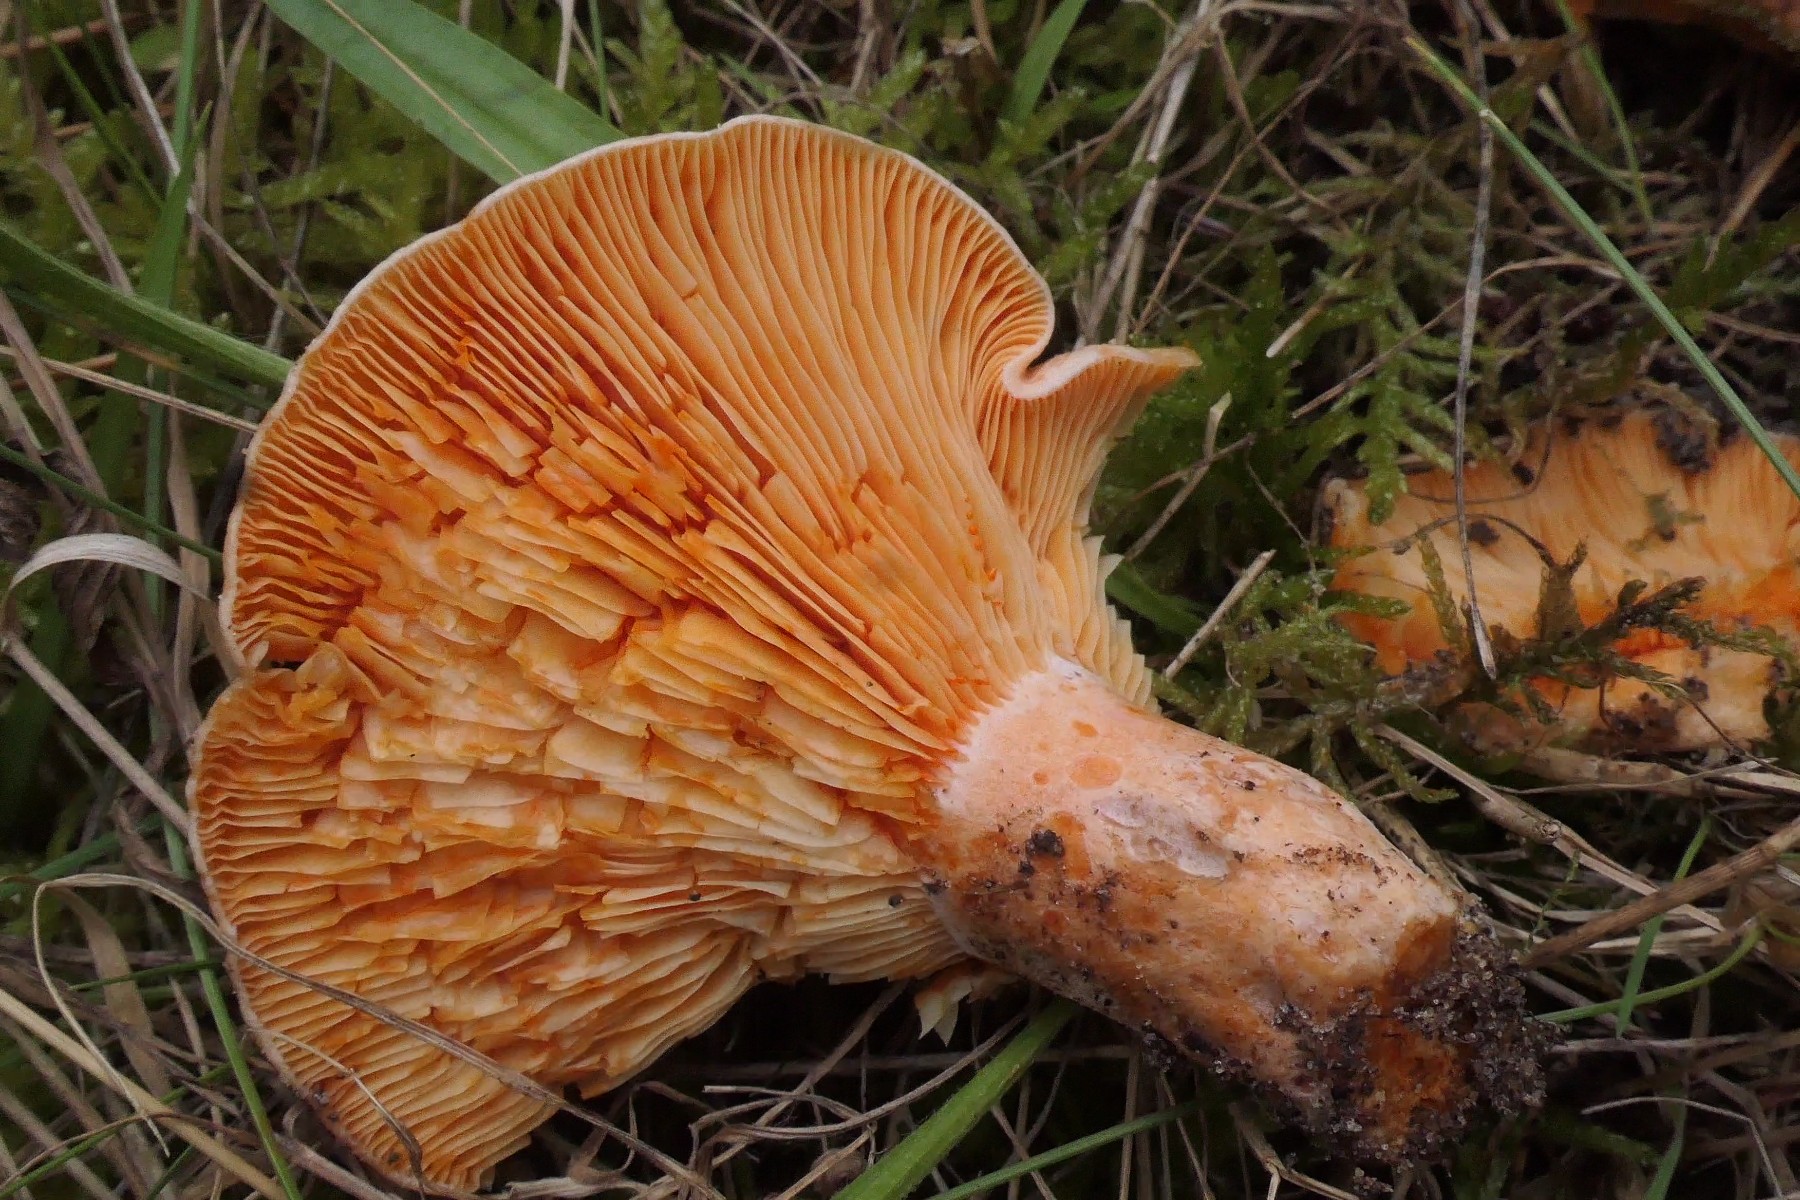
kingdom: Fungi
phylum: Basidiomycota
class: Agaricomycetes
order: Russulales
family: Russulaceae
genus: Lactarius
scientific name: Lactarius deliciosus
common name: velsmagende mælkehat
